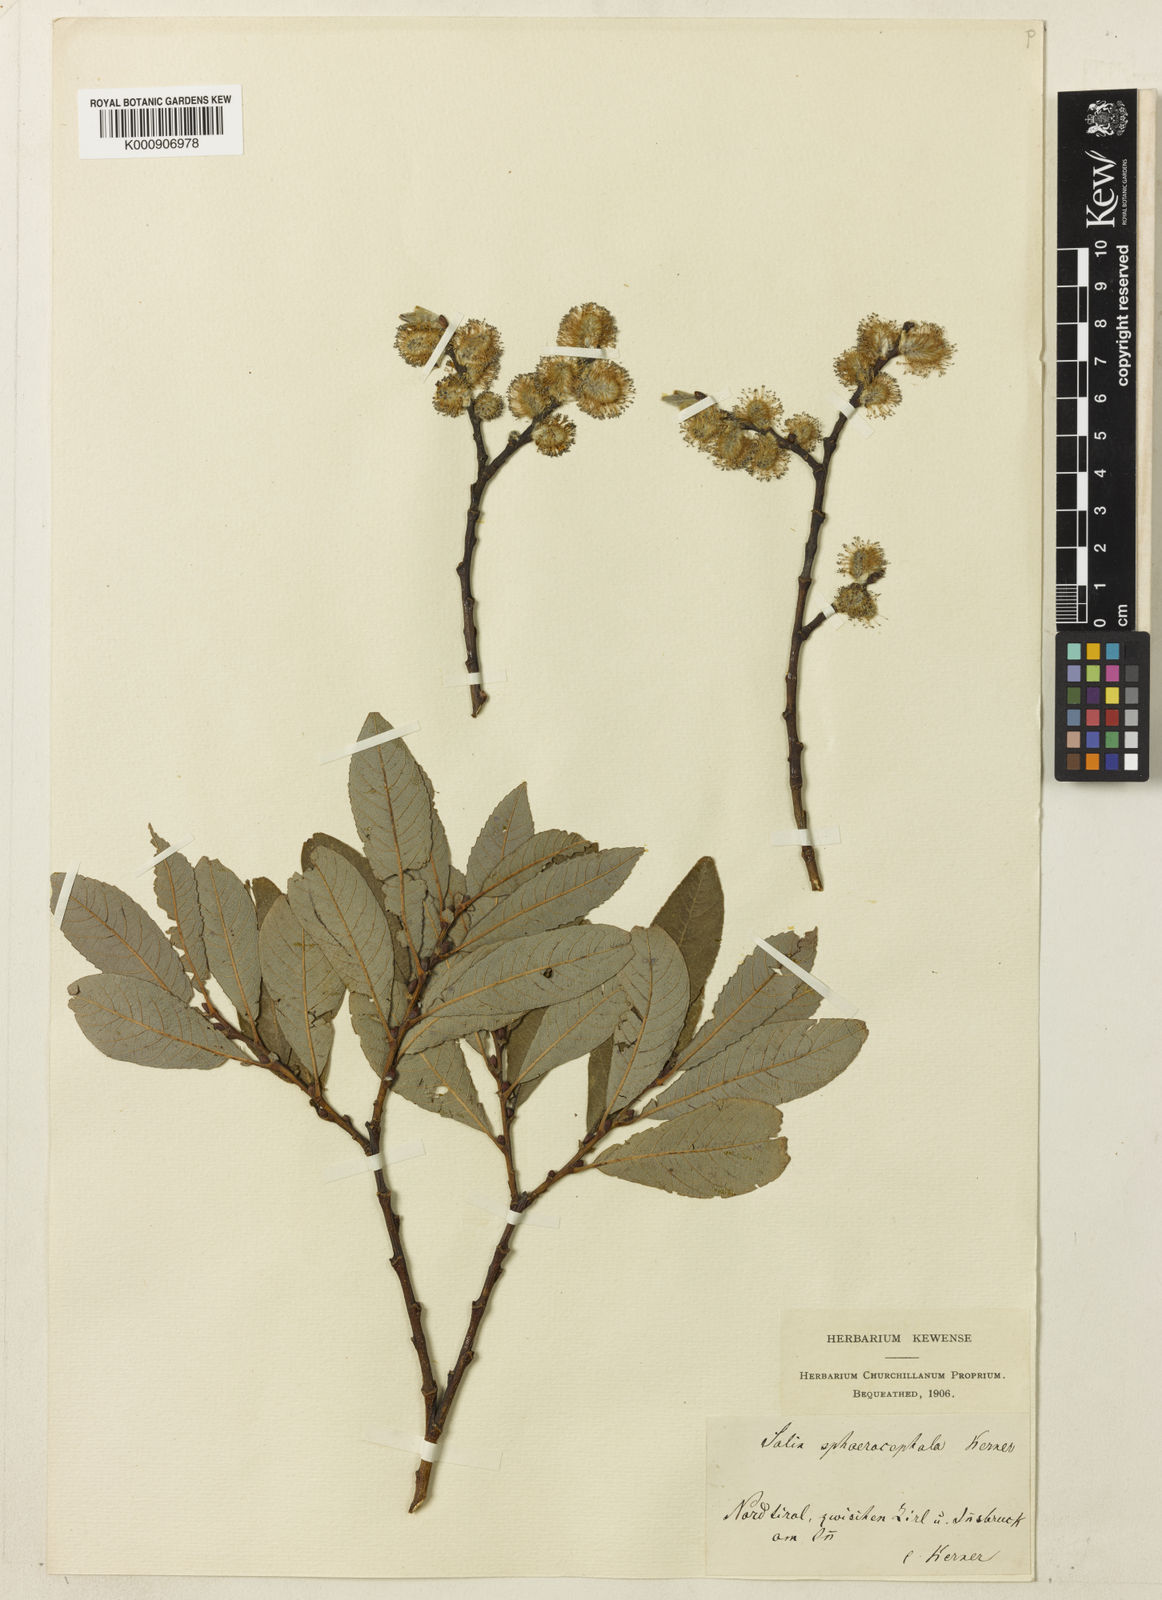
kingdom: Plantae
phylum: Tracheophyta
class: Magnoliopsida
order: Malpighiales
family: Salicaceae
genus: Salix
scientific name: Salix appendiculata
